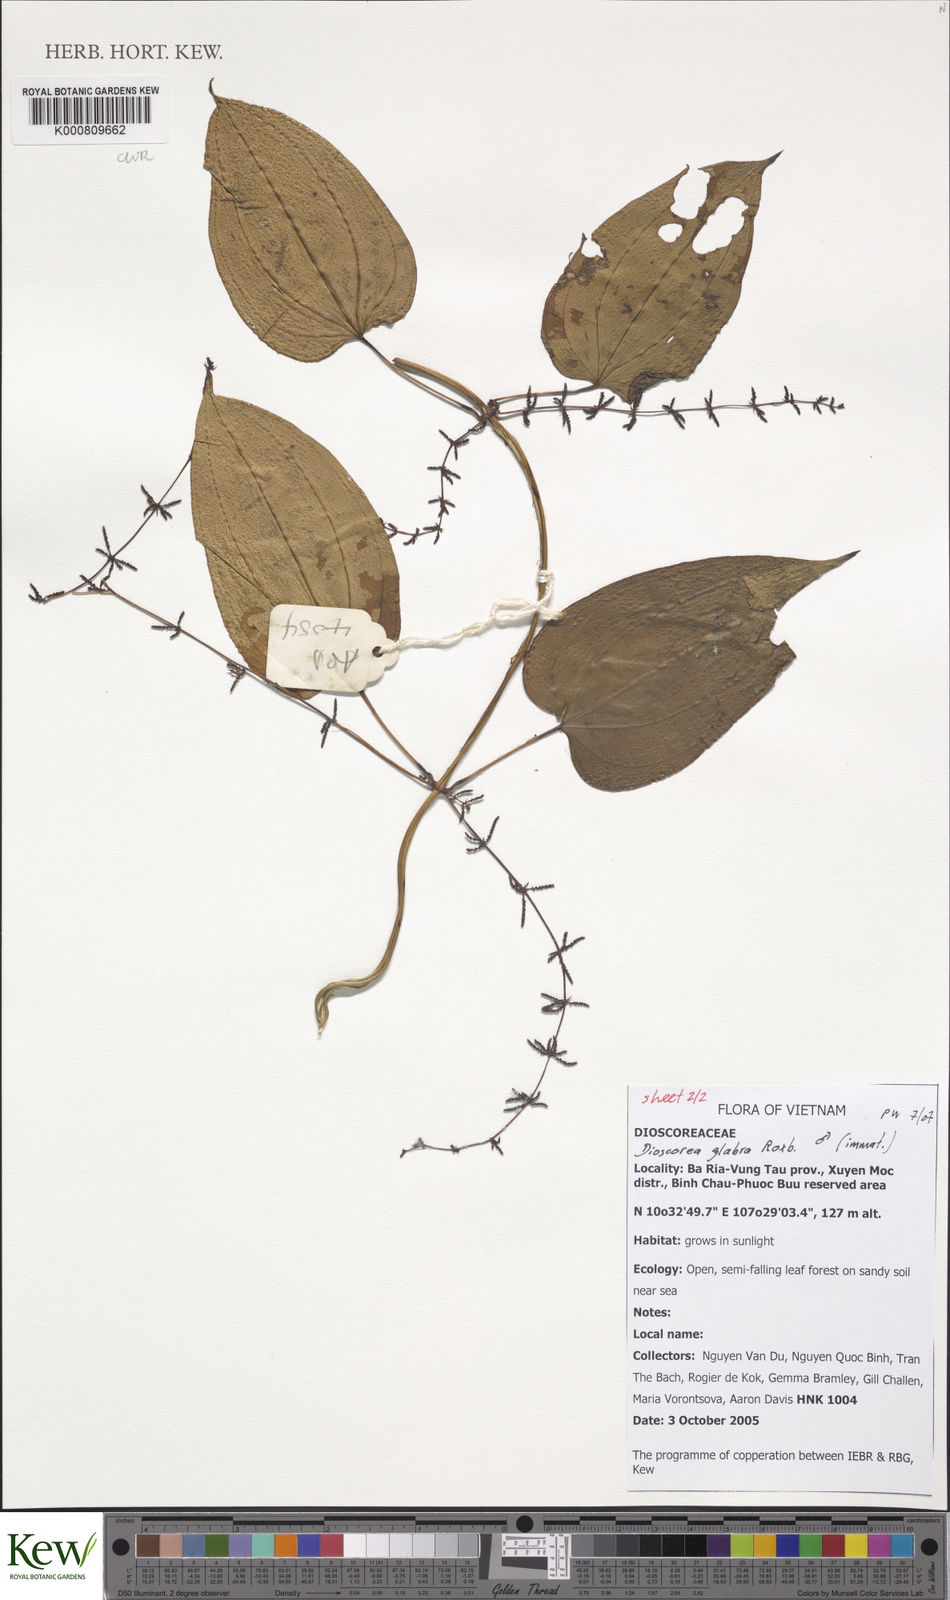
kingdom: Plantae
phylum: Tracheophyta
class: Liliopsida
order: Dioscoreales
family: Dioscoreaceae
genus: Dioscorea
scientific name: Dioscorea glabra
